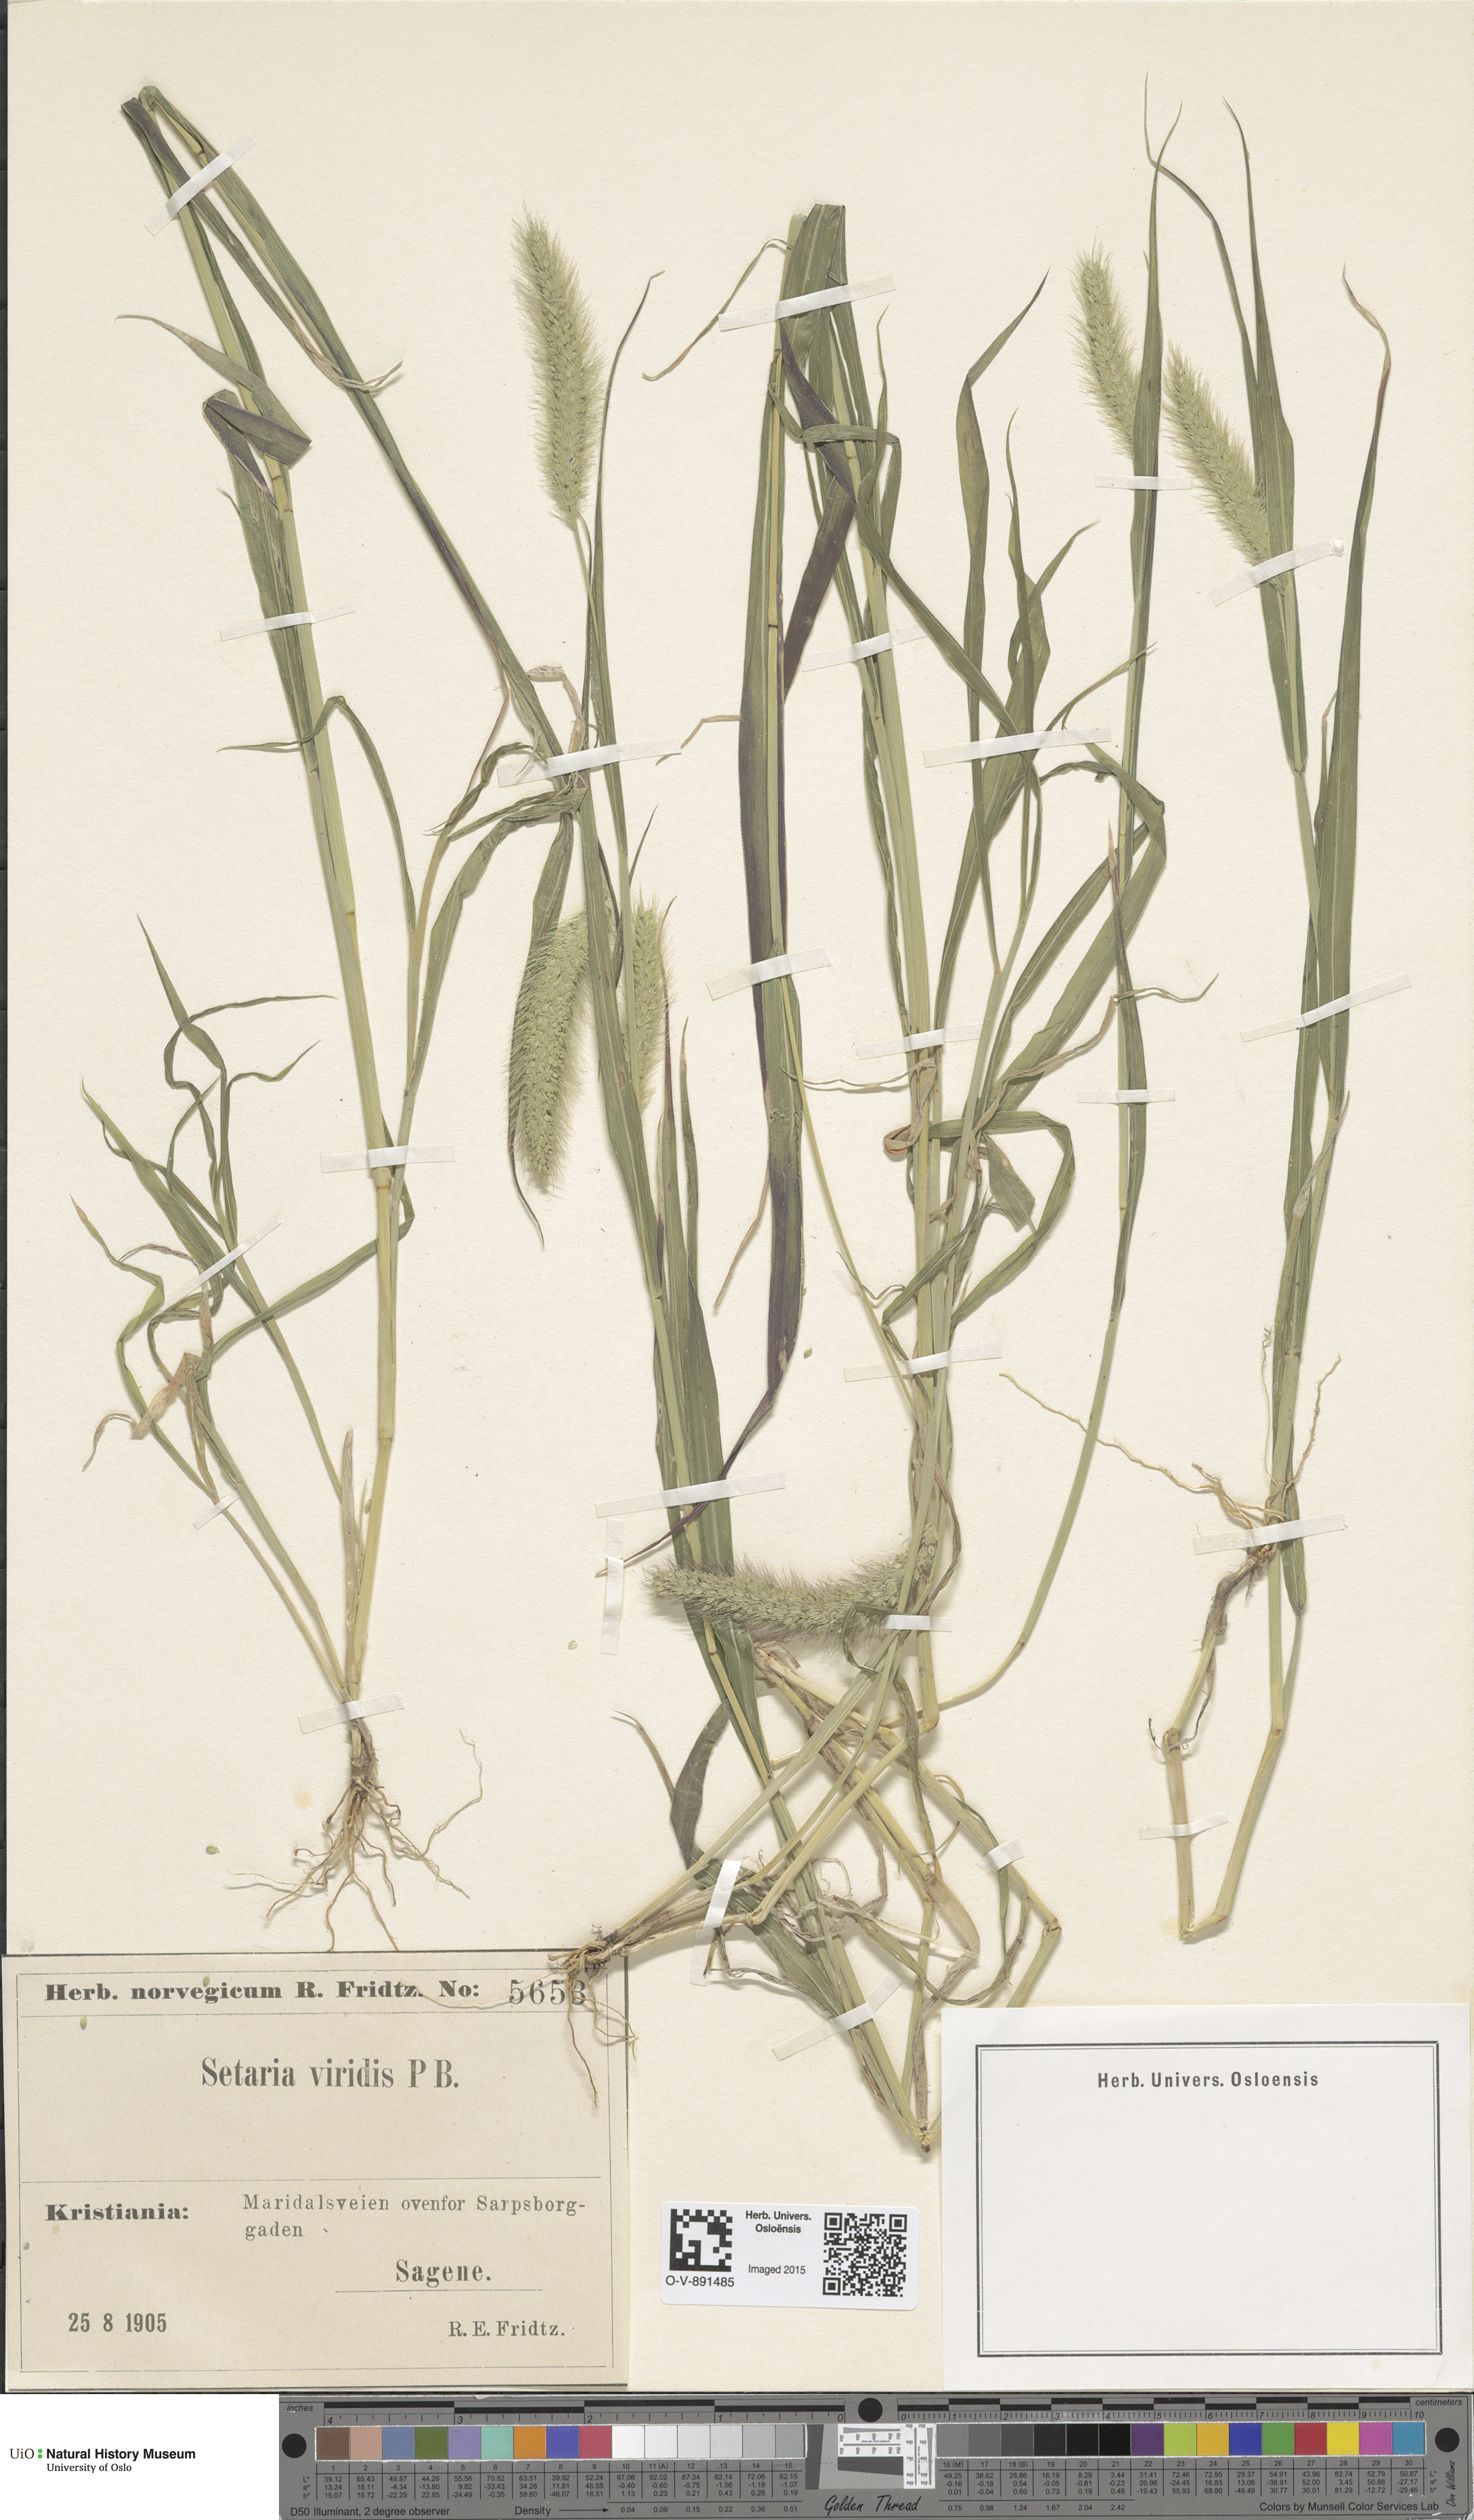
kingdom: Plantae
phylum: Tracheophyta
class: Liliopsida
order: Poales
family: Poaceae
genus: Setaria
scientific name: Setaria viridis
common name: Green bristlegrass
